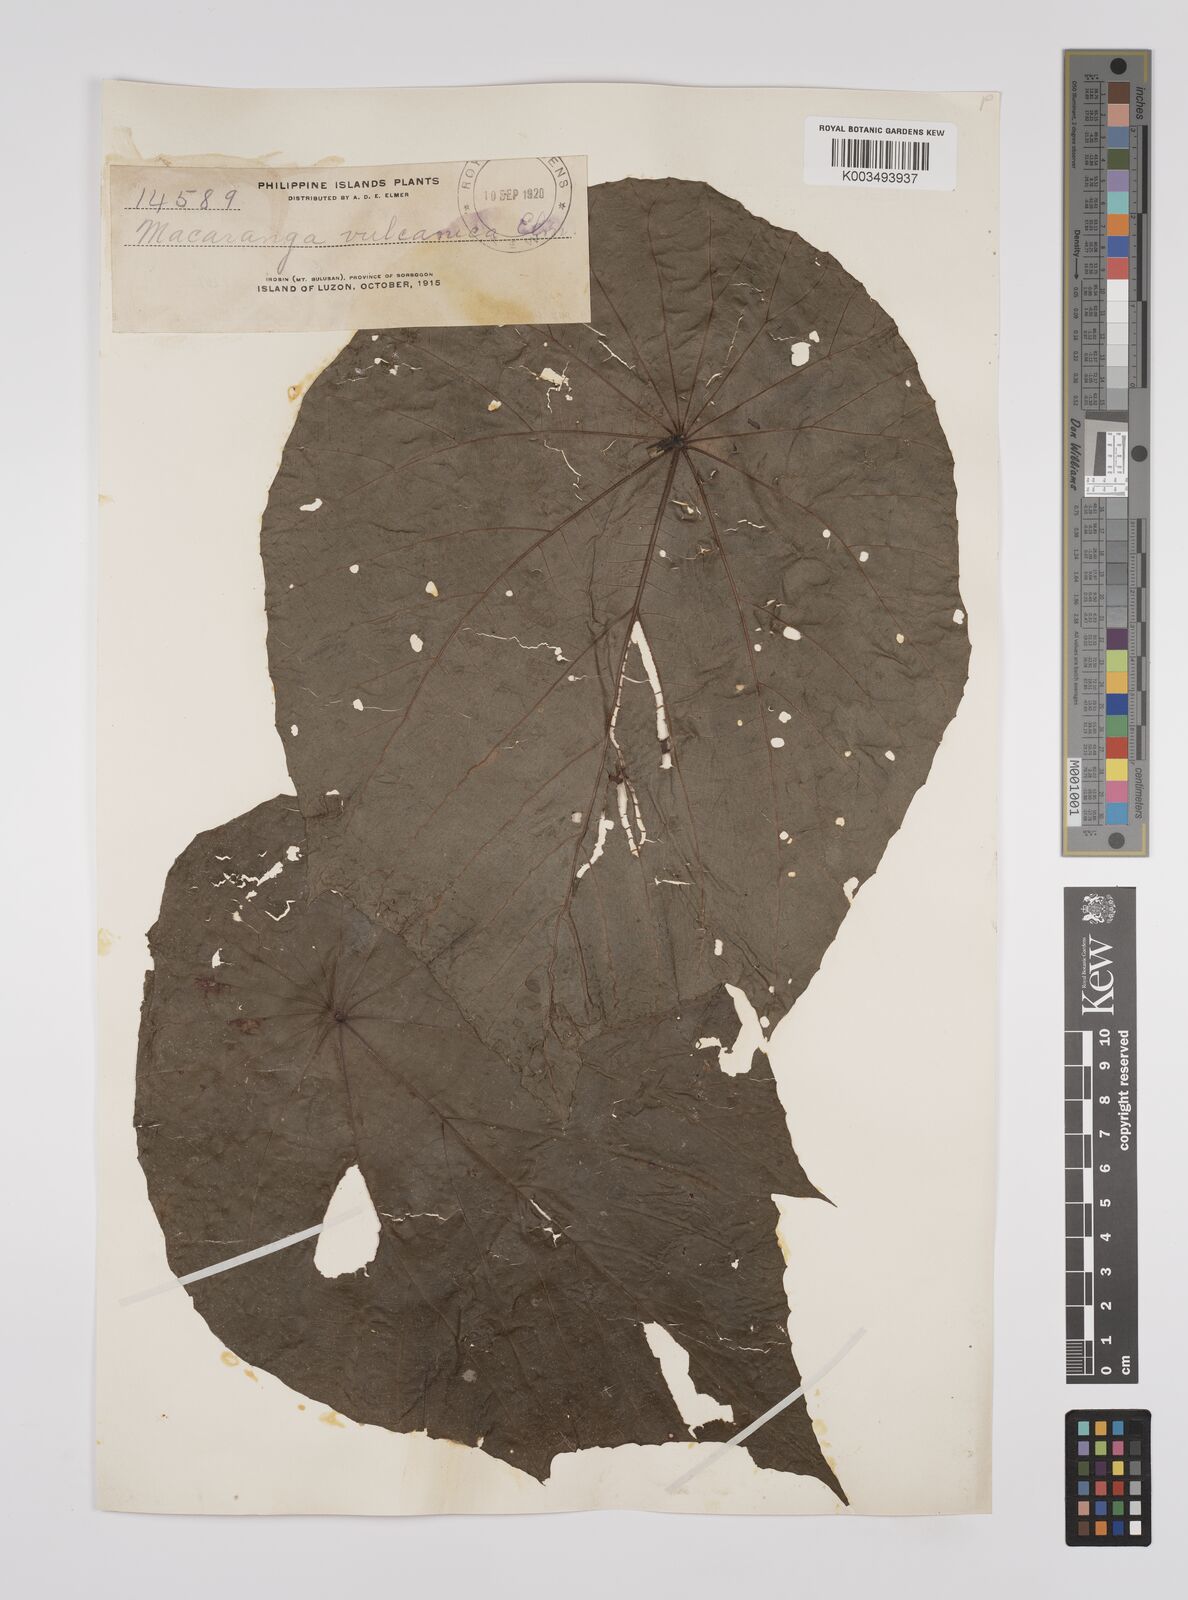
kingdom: Plantae
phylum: Tracheophyta
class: Magnoliopsida
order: Malpighiales
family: Euphorbiaceae
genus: Macaranga
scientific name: Macaranga tanarius
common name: Parasol leaf tree
